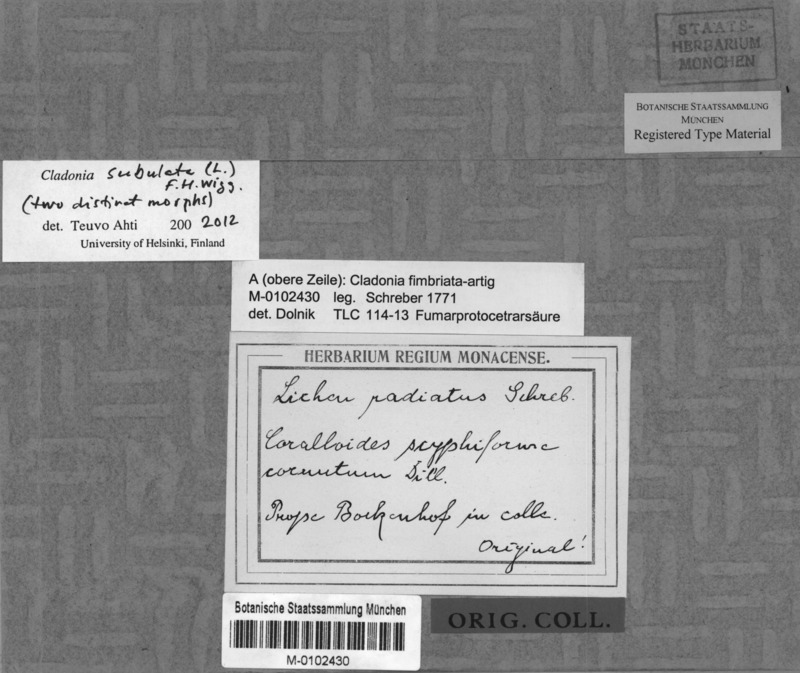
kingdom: Fungi
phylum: Ascomycota
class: Lecanoromycetes
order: Lecanorales
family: Cladoniaceae
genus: Cladonia
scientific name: Cladonia subulata
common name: Antlered powderhorn
